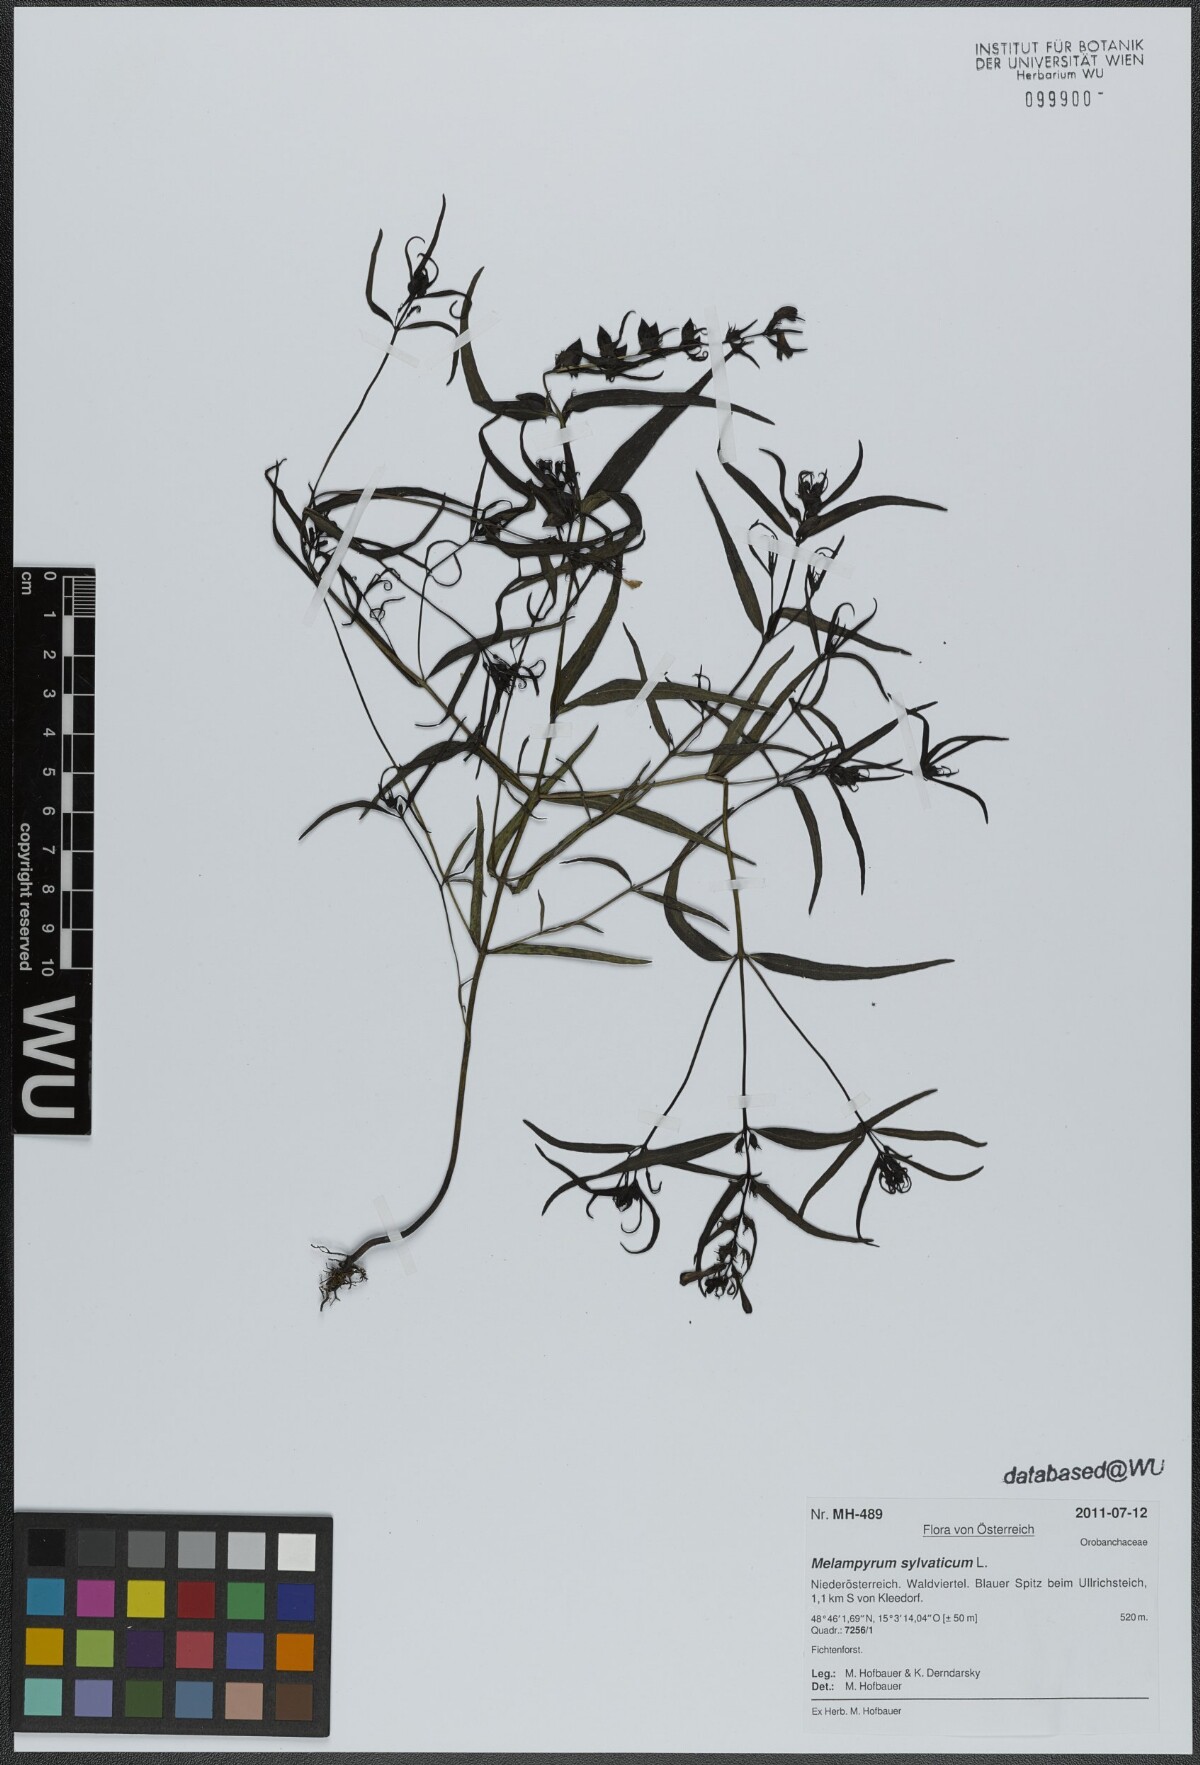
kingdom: Plantae
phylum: Tracheophyta
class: Magnoliopsida
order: Lamiales
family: Orobanchaceae
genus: Melampyrum
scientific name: Melampyrum pratense
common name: Common cow-wheat
